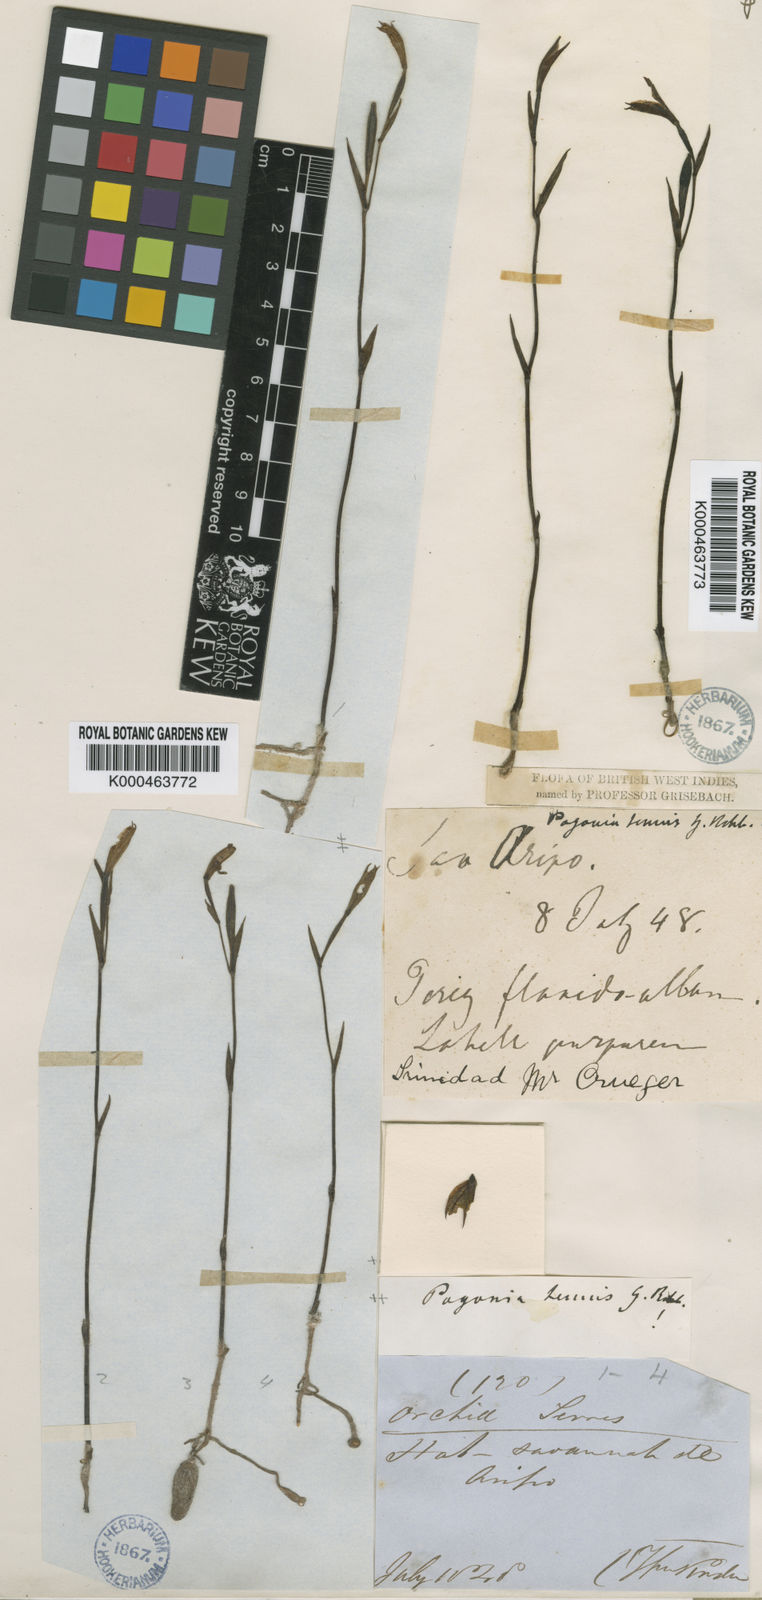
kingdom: Plantae
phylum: Tracheophyta
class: Liliopsida
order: Asparagales
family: Orchidaceae
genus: Cleistes
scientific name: Cleistes tenuis
